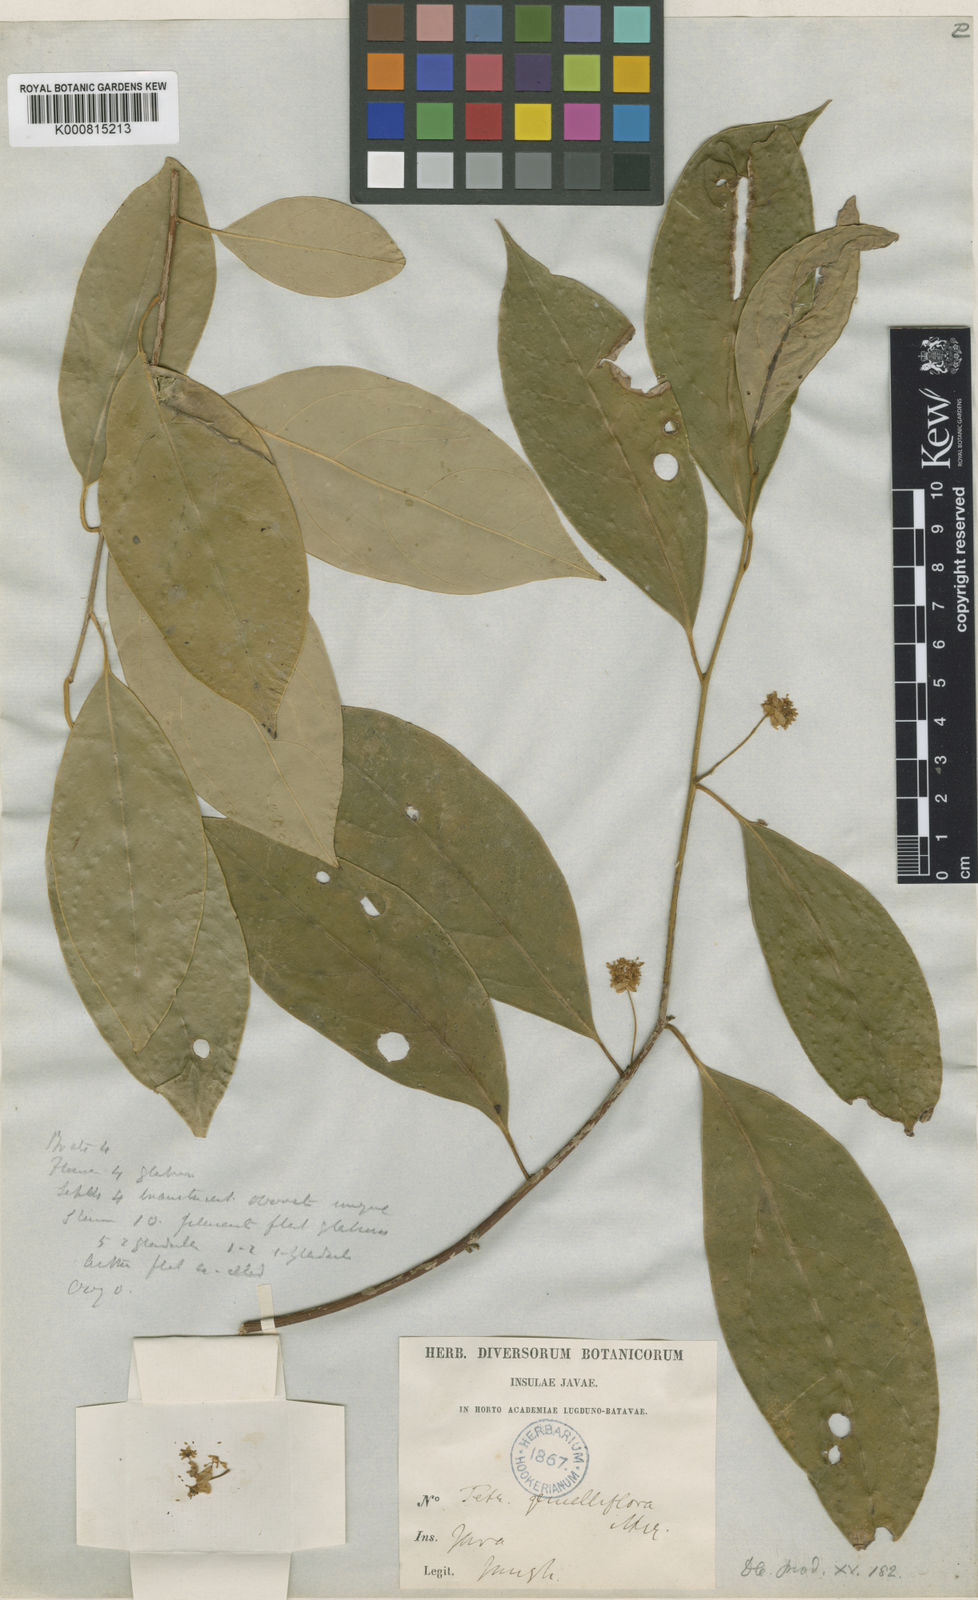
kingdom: Plantae
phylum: Tracheophyta
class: Magnoliopsida
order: Laurales
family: Lauraceae
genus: Litsea
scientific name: Litsea gemelliflora
